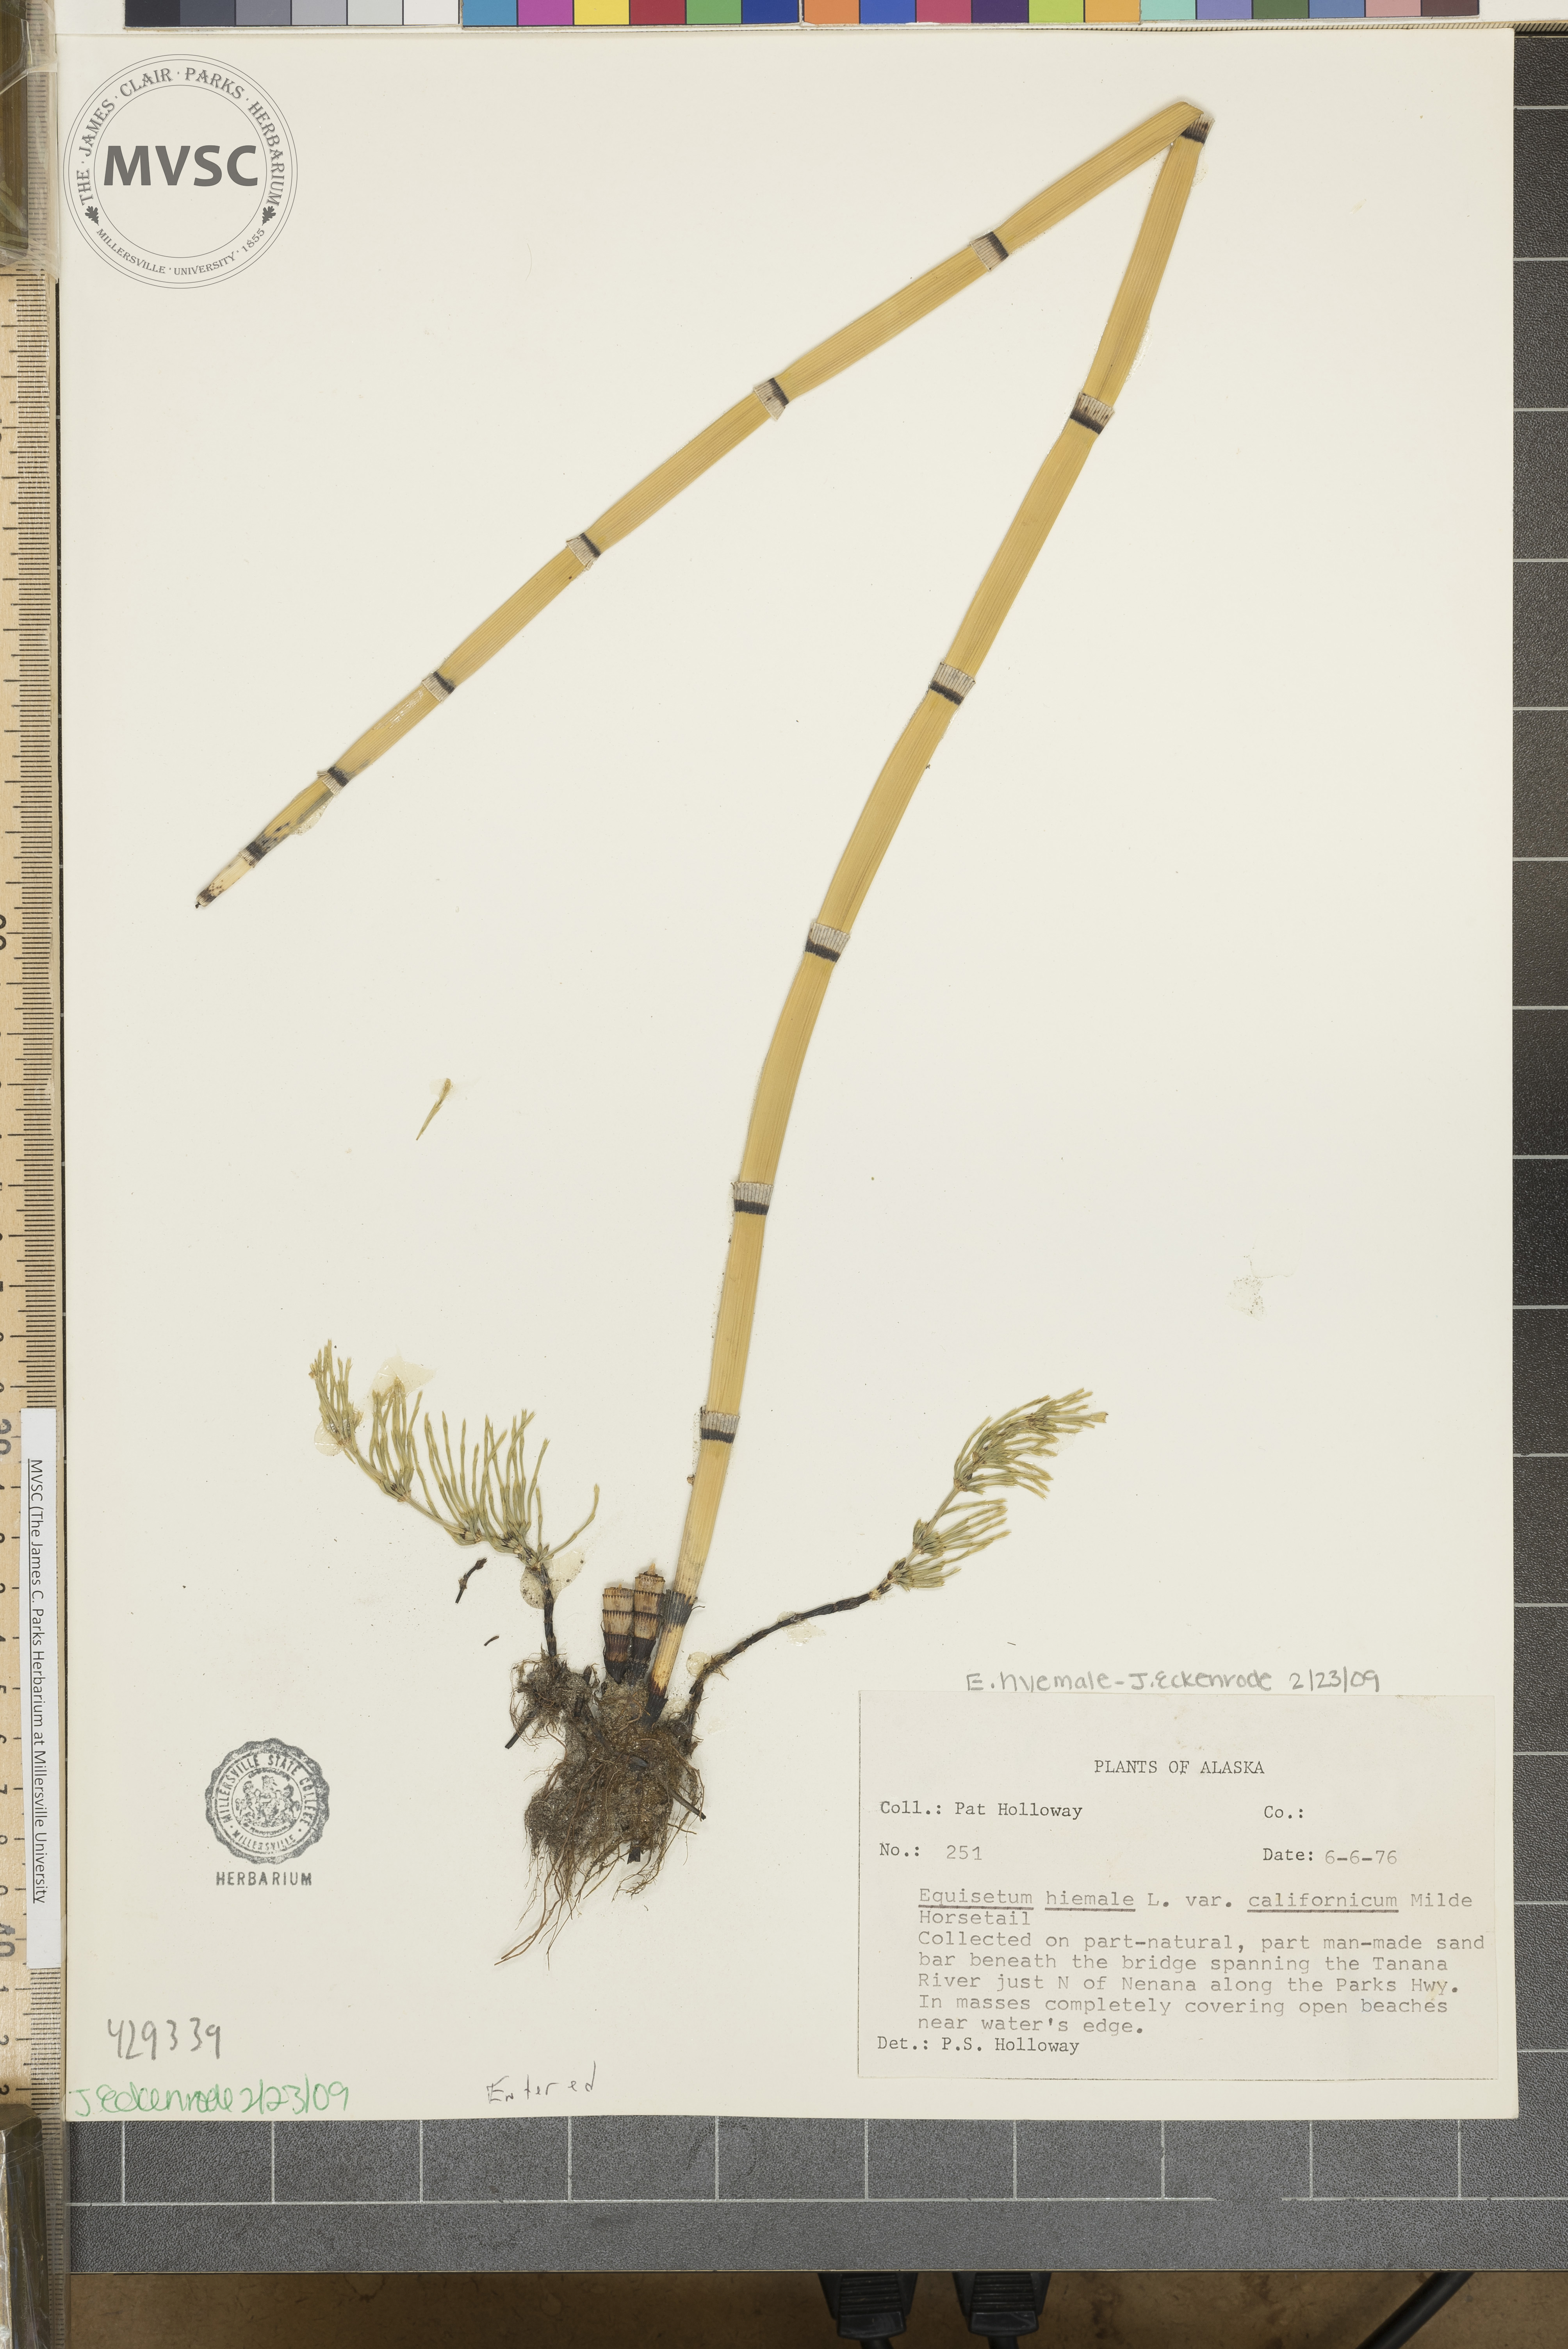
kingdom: Plantae
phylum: Tracheophyta
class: Polypodiopsida
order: Equisetales
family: Equisetaceae
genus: Equisetum
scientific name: Equisetum hyemale
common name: Rough horsetail
